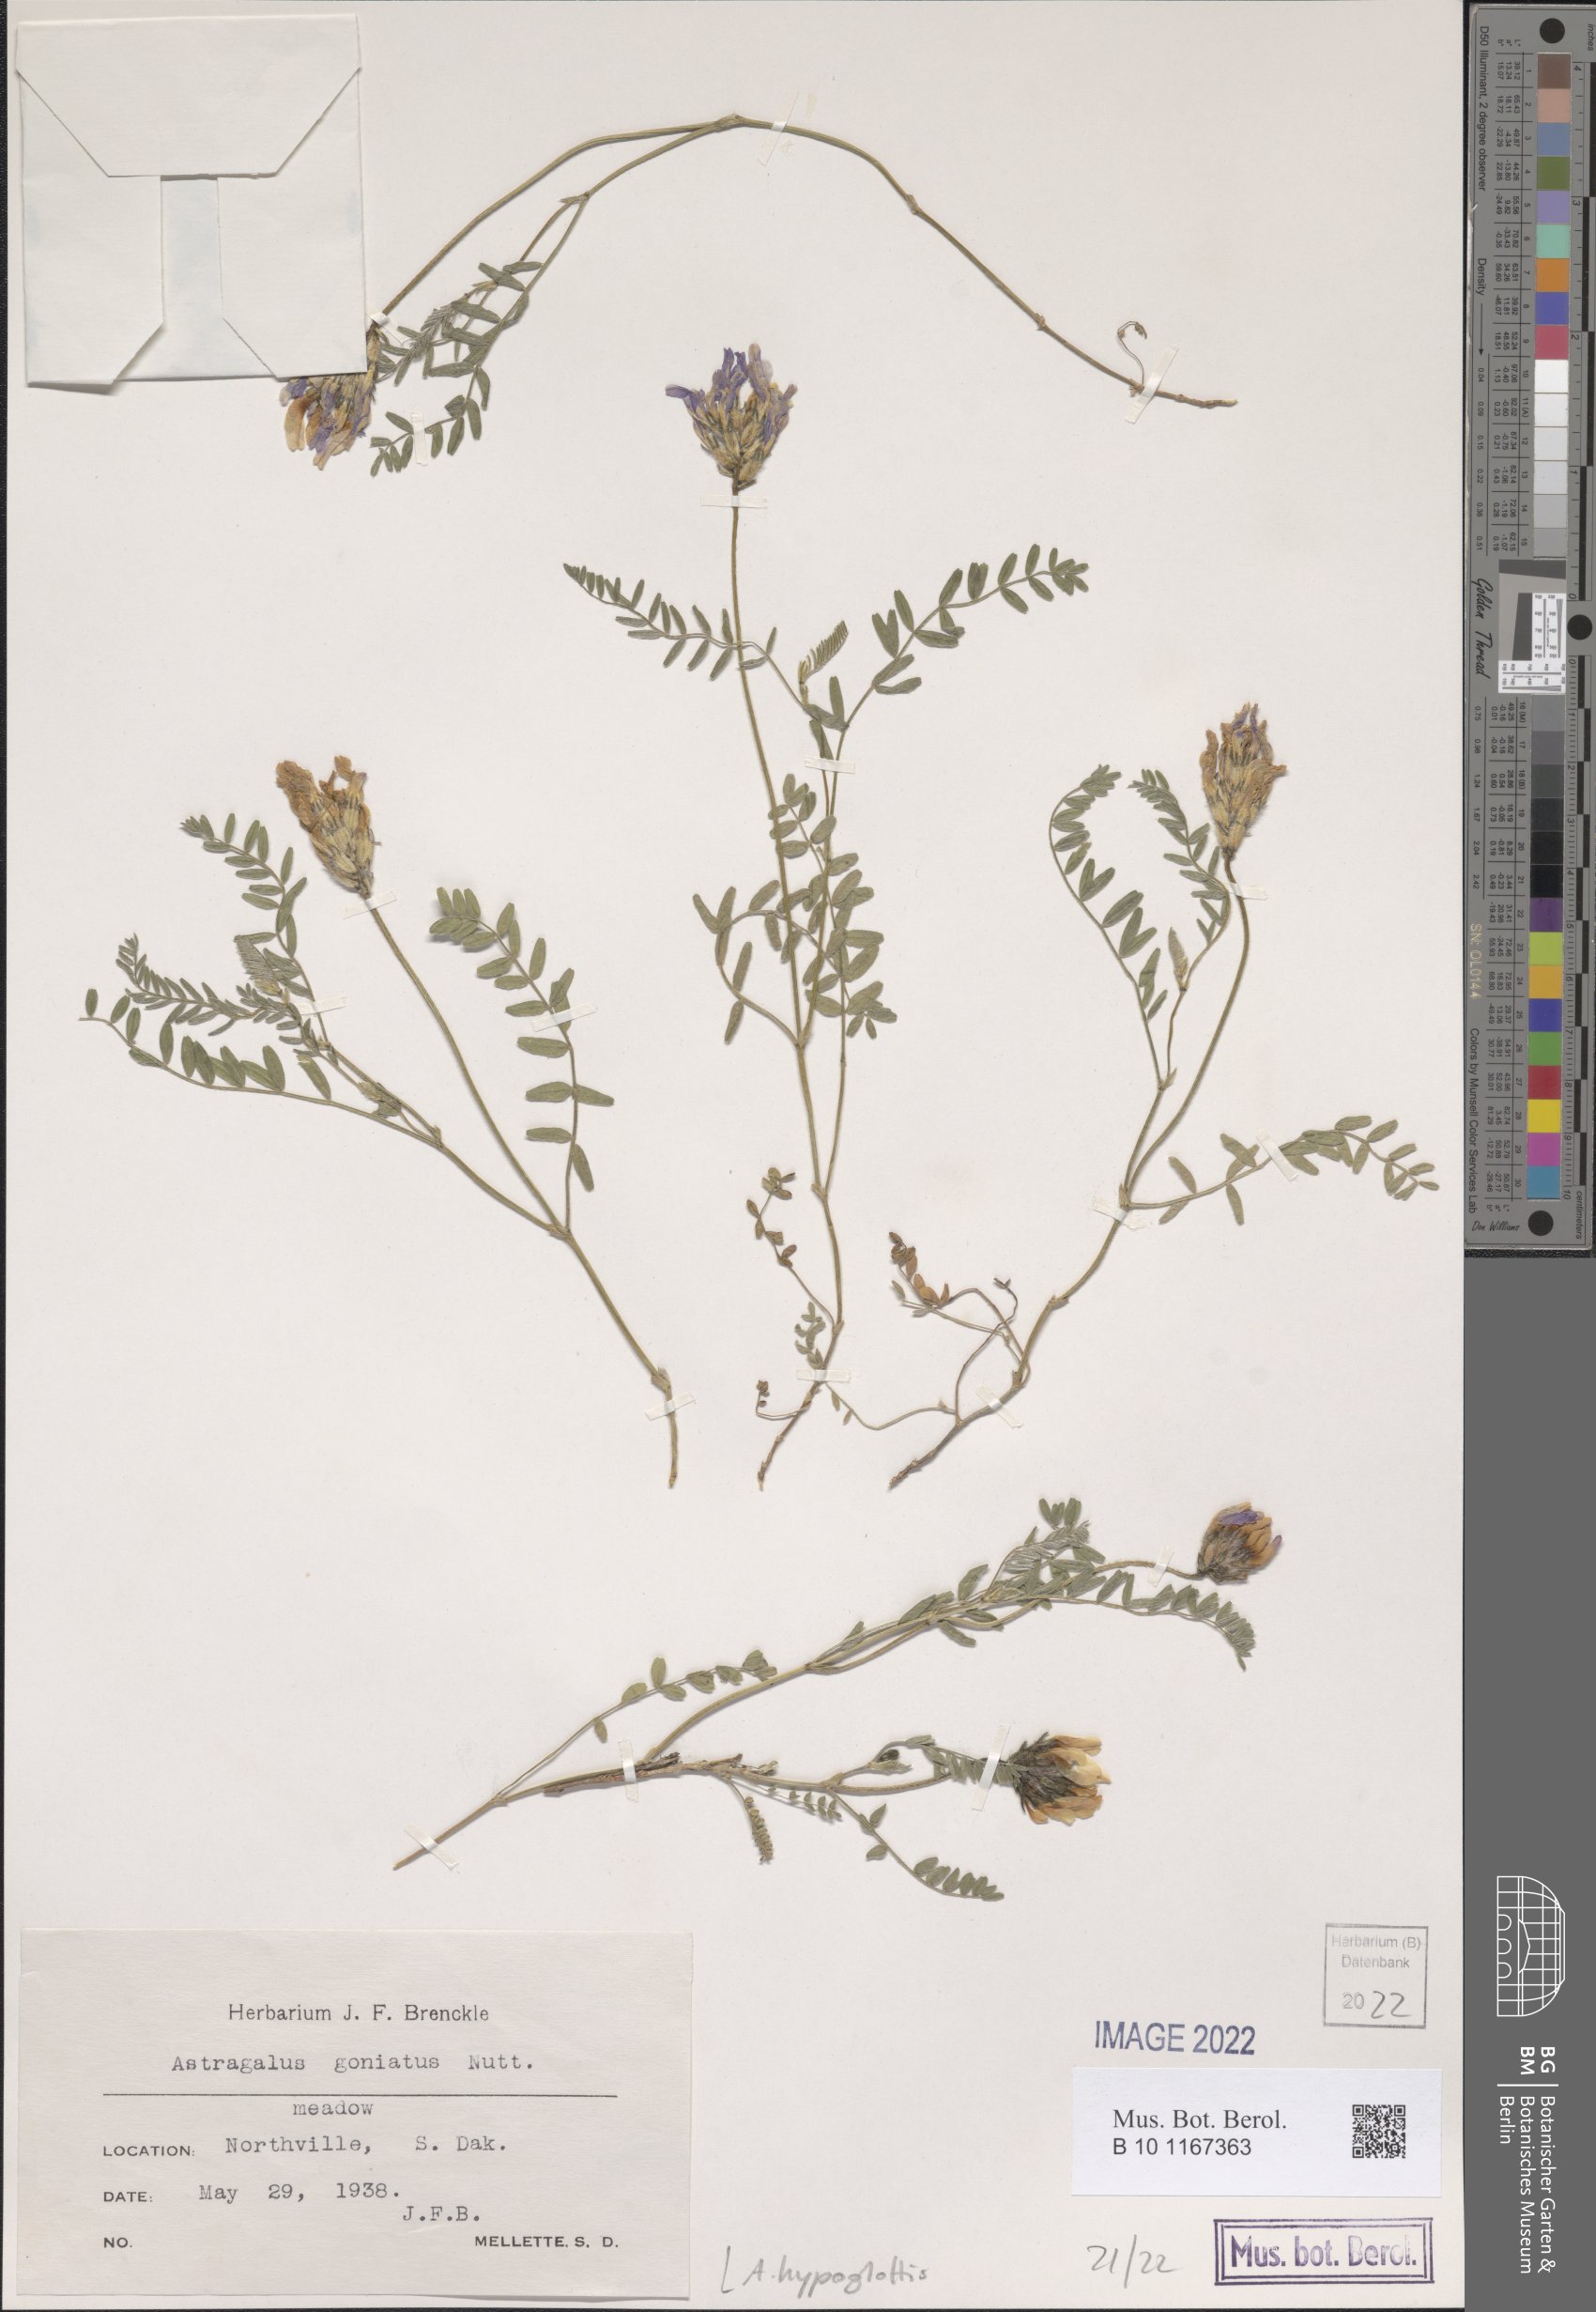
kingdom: Plantae
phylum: Tracheophyta
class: Magnoliopsida
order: Fabales
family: Fabaceae
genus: Astragalus
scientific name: Astragalus hypoglottis
